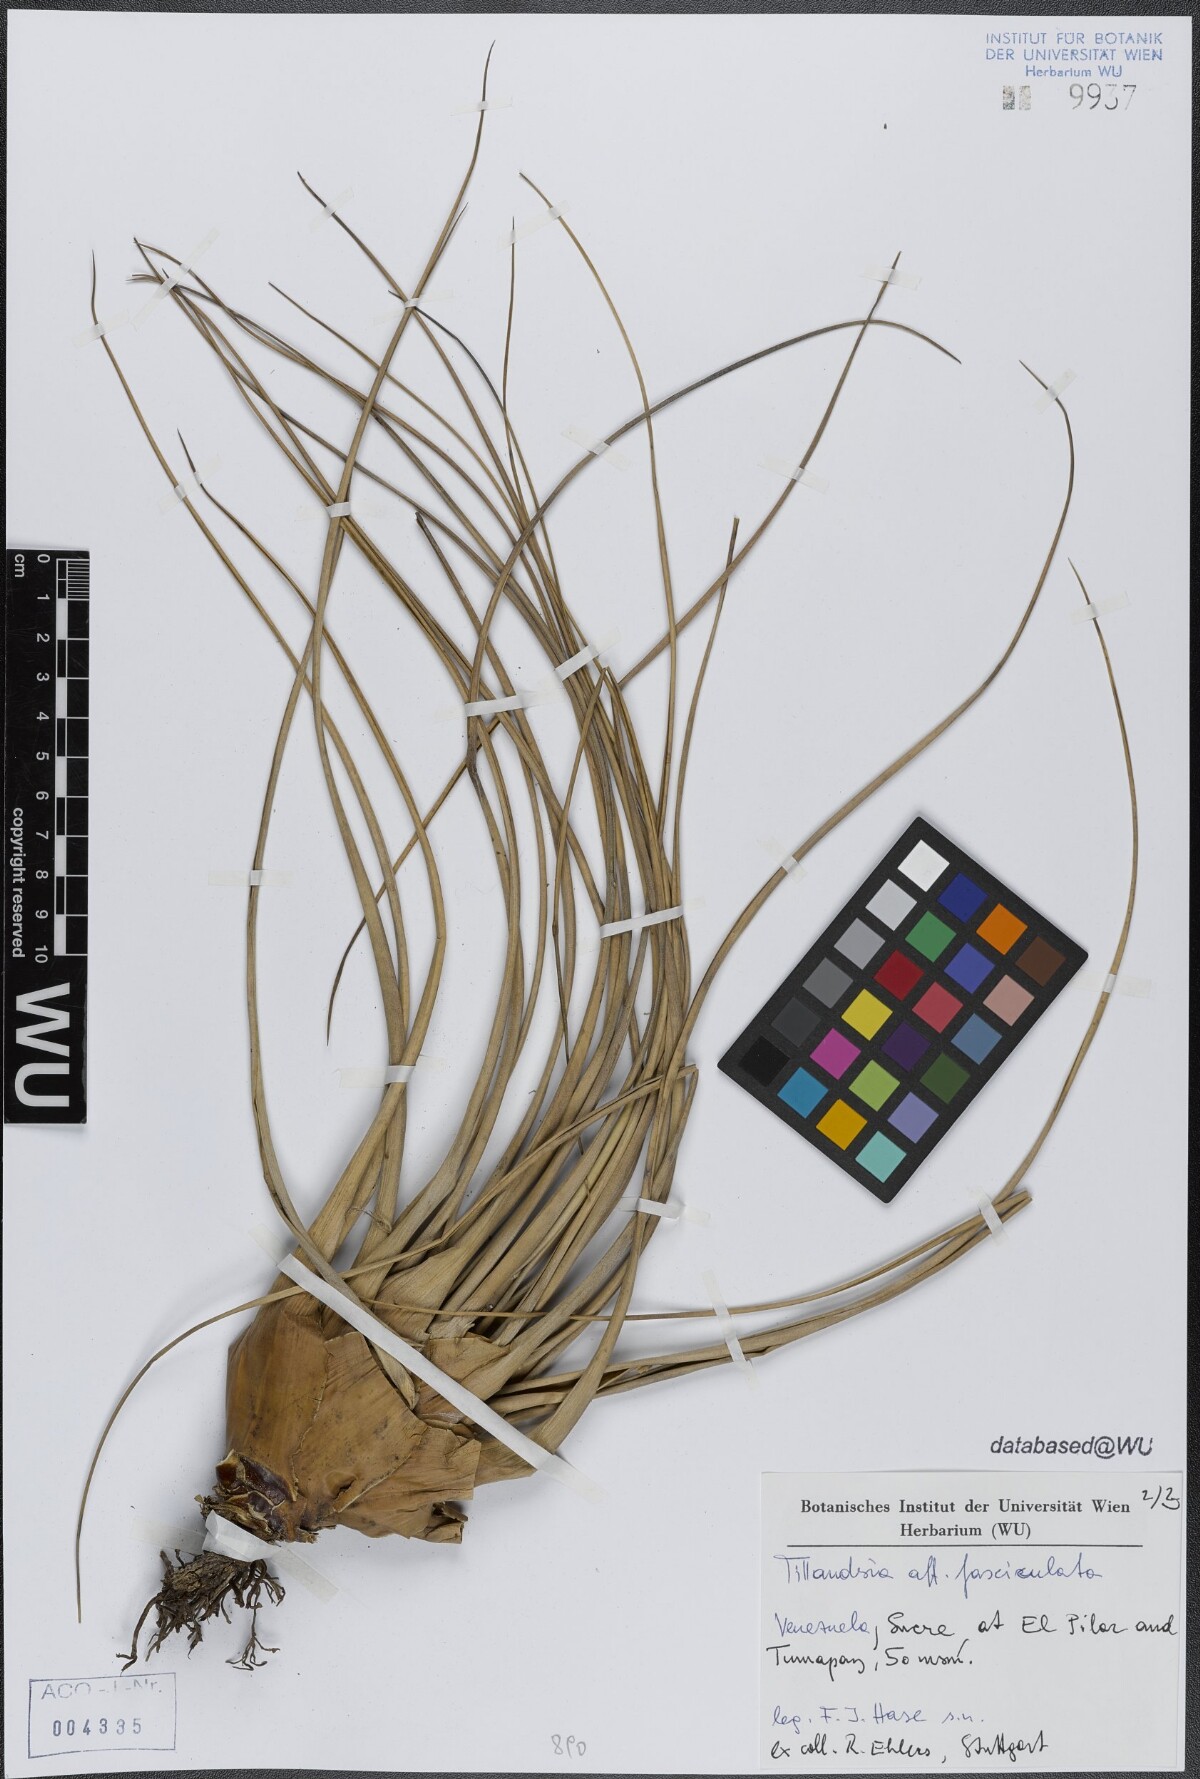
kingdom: Plantae
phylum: Tracheophyta
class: Liliopsida
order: Poales
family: Bromeliaceae
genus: Tillandsia
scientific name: Tillandsia fasciculata
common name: Giant airplant
